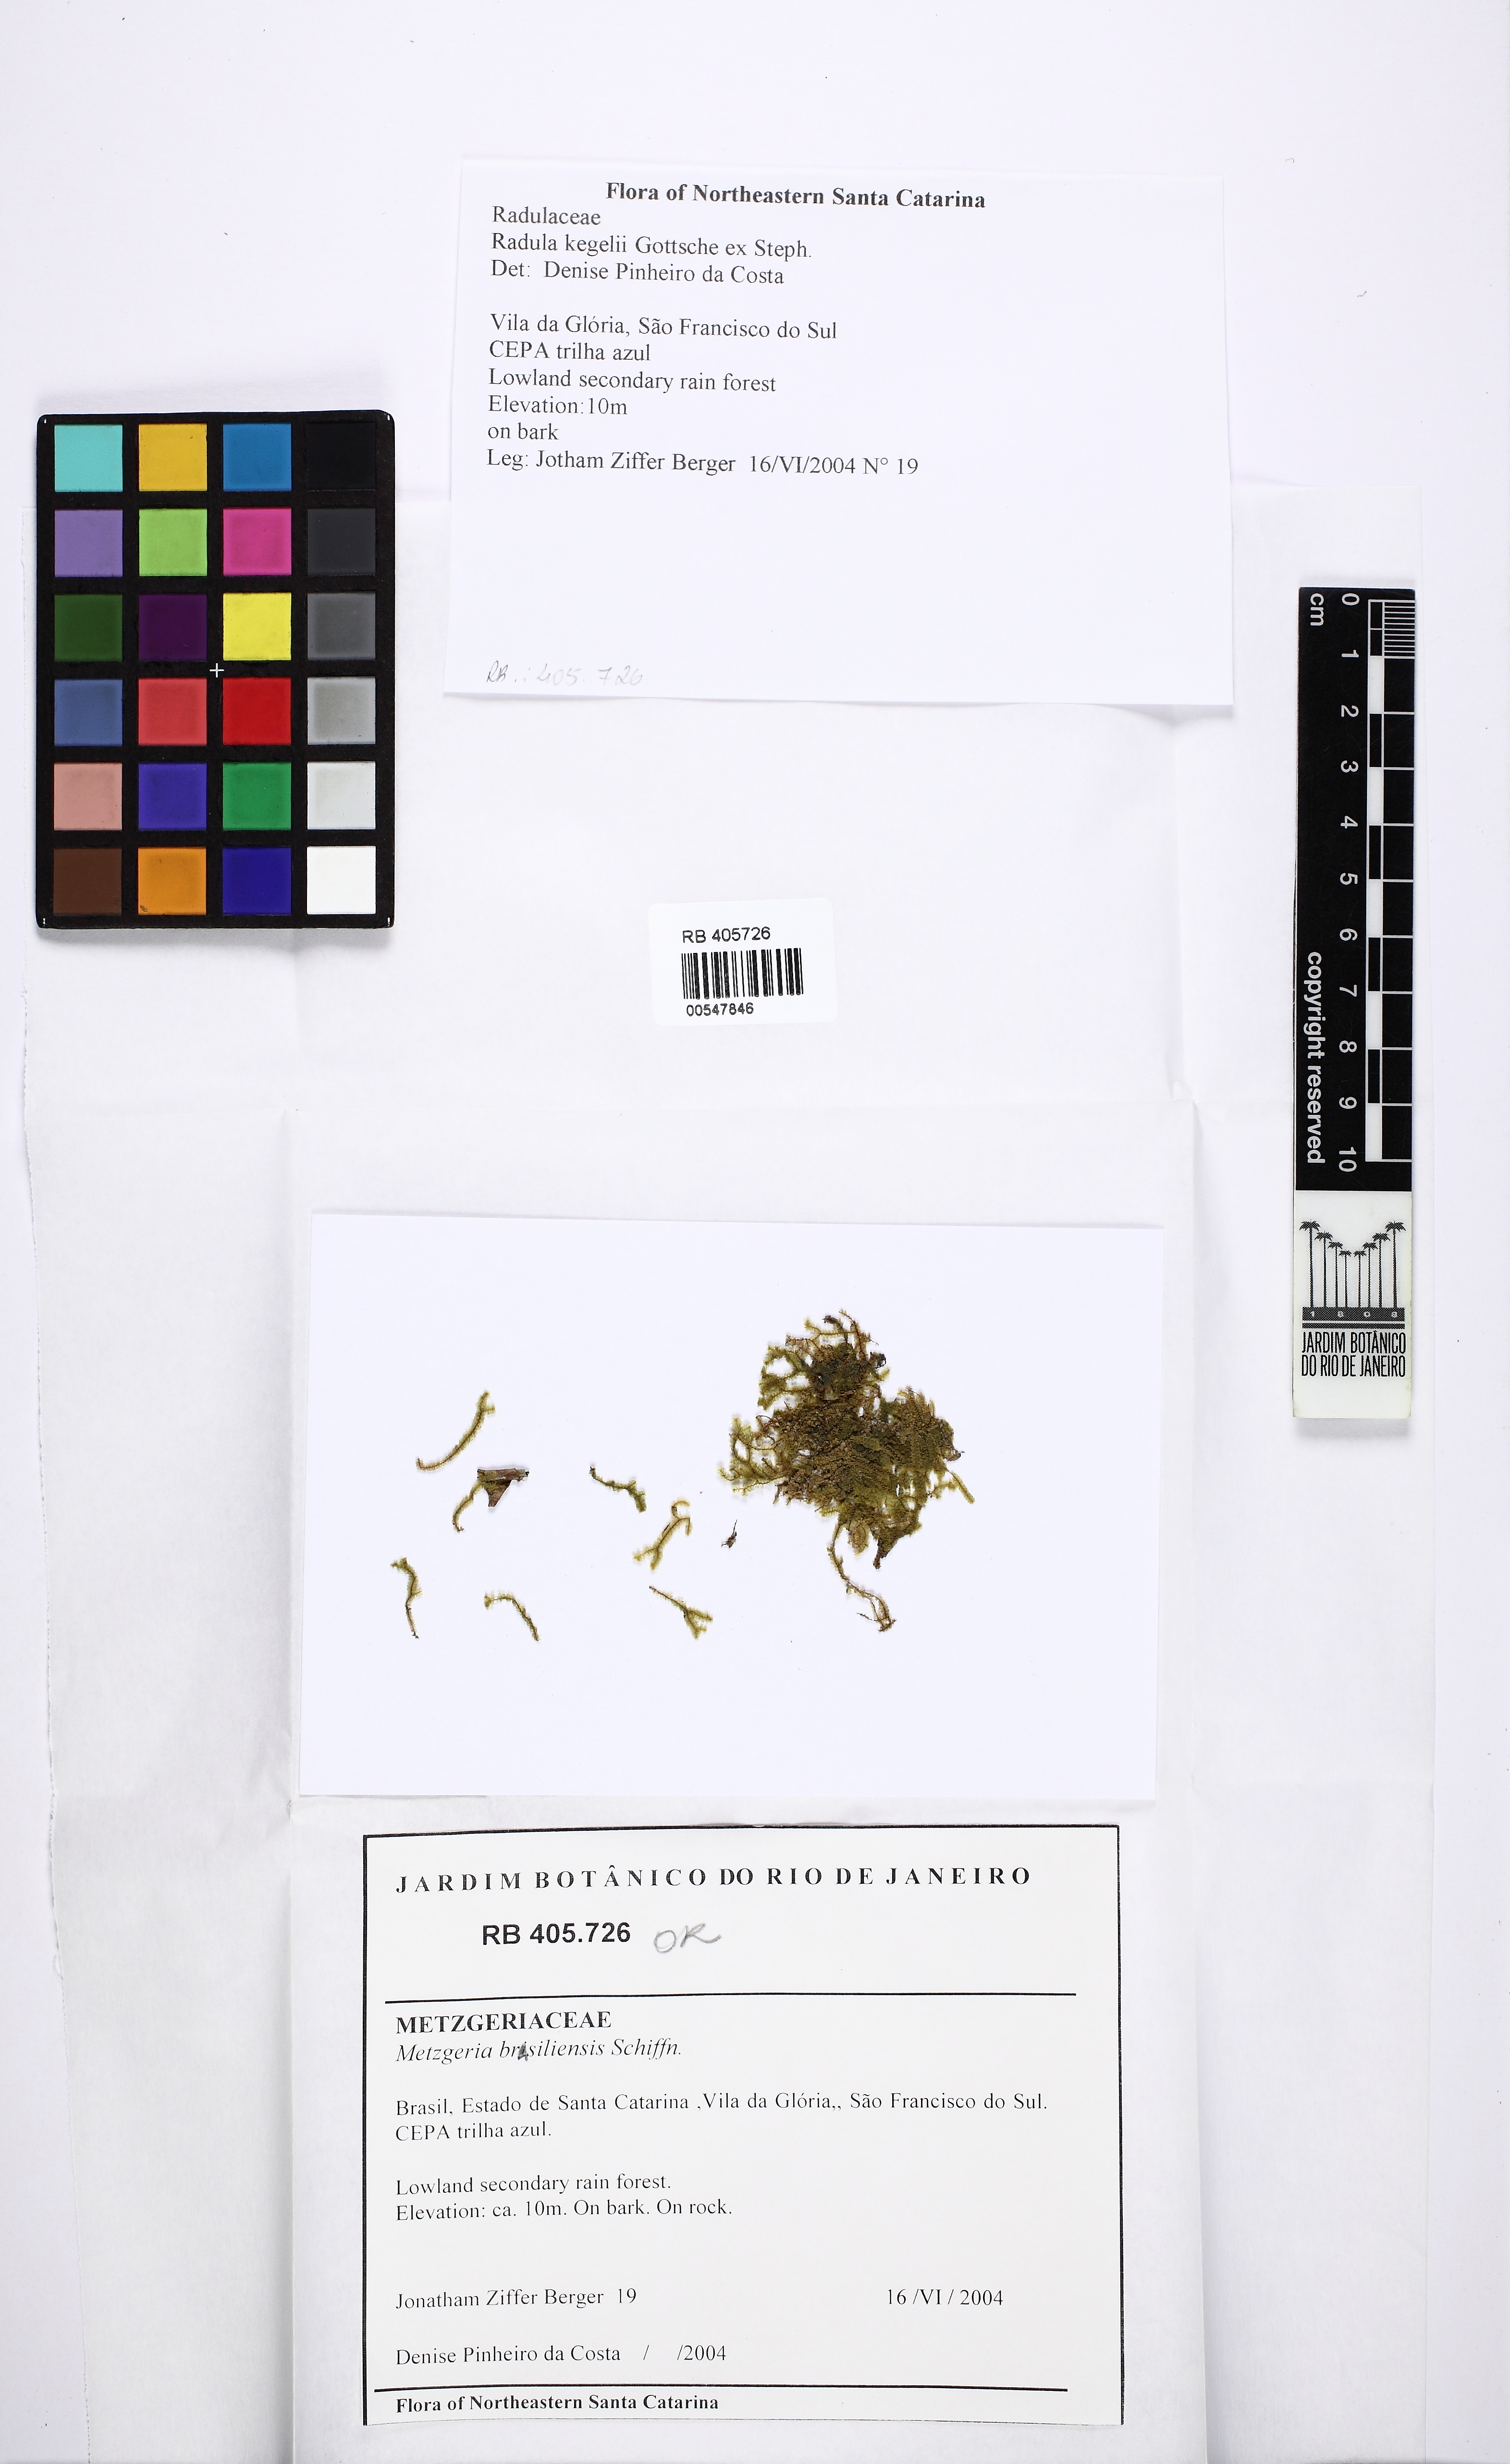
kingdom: Plantae
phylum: Marchantiophyta
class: Jungermanniopsida
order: Metzgeriales
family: Metzgeriaceae
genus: Metzgeria
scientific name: Metzgeria brasiliensis
